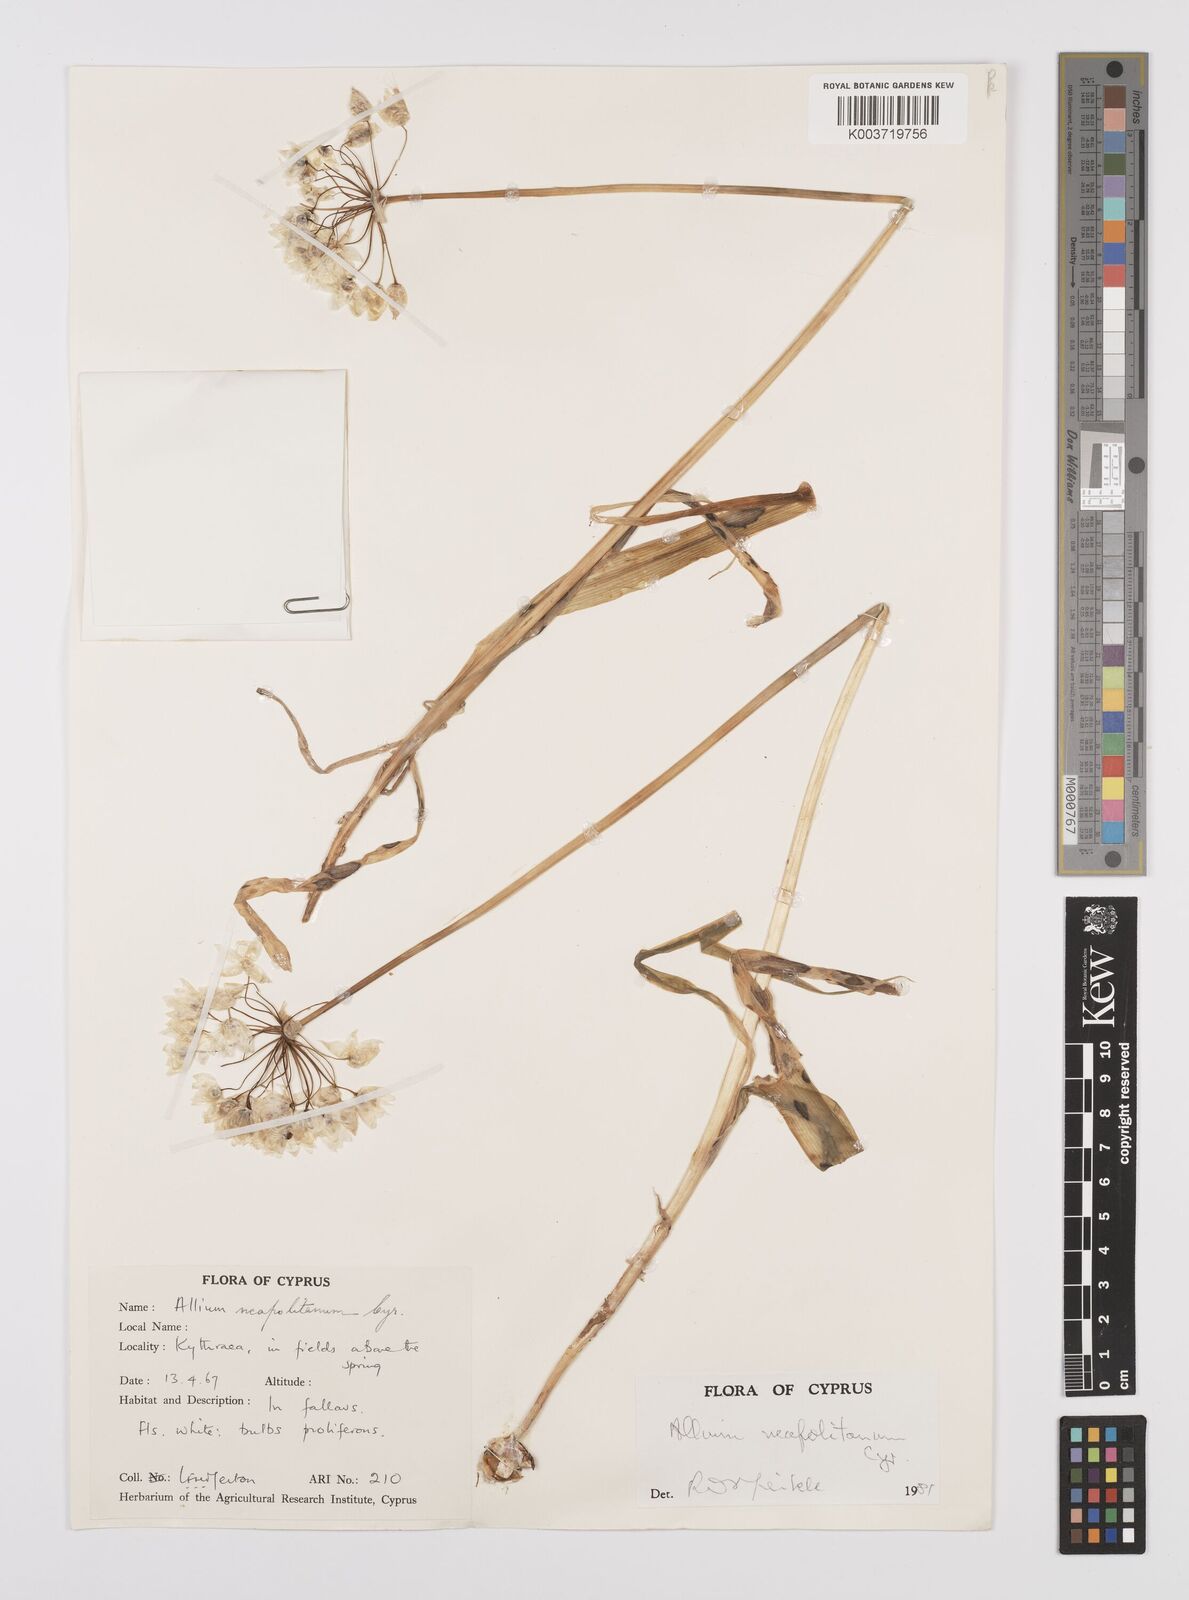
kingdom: Plantae
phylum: Tracheophyta
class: Liliopsida
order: Asparagales
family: Amaryllidaceae
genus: Allium
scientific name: Allium neapolitanum
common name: Neapolitan garlic
